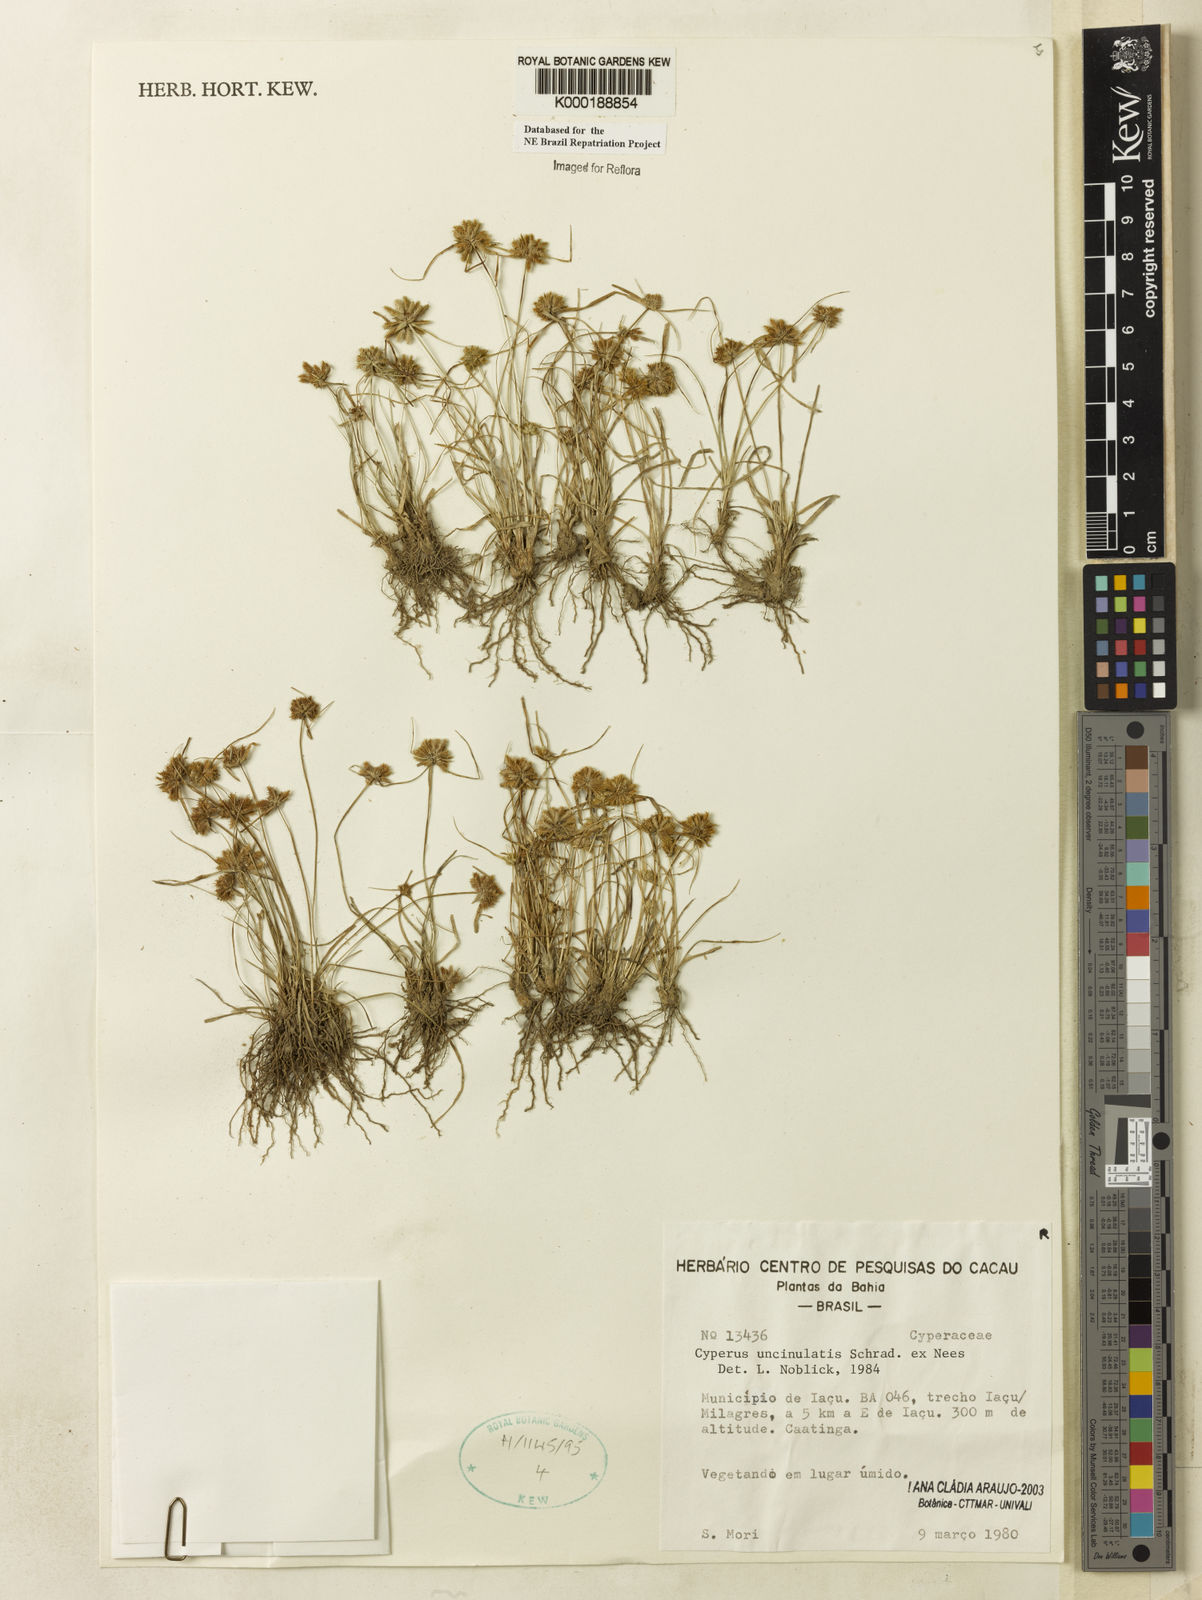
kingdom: Plantae
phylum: Tracheophyta
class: Liliopsida
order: Poales
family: Cyperaceae
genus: Cyperus
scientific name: Cyperus uncinulatus
